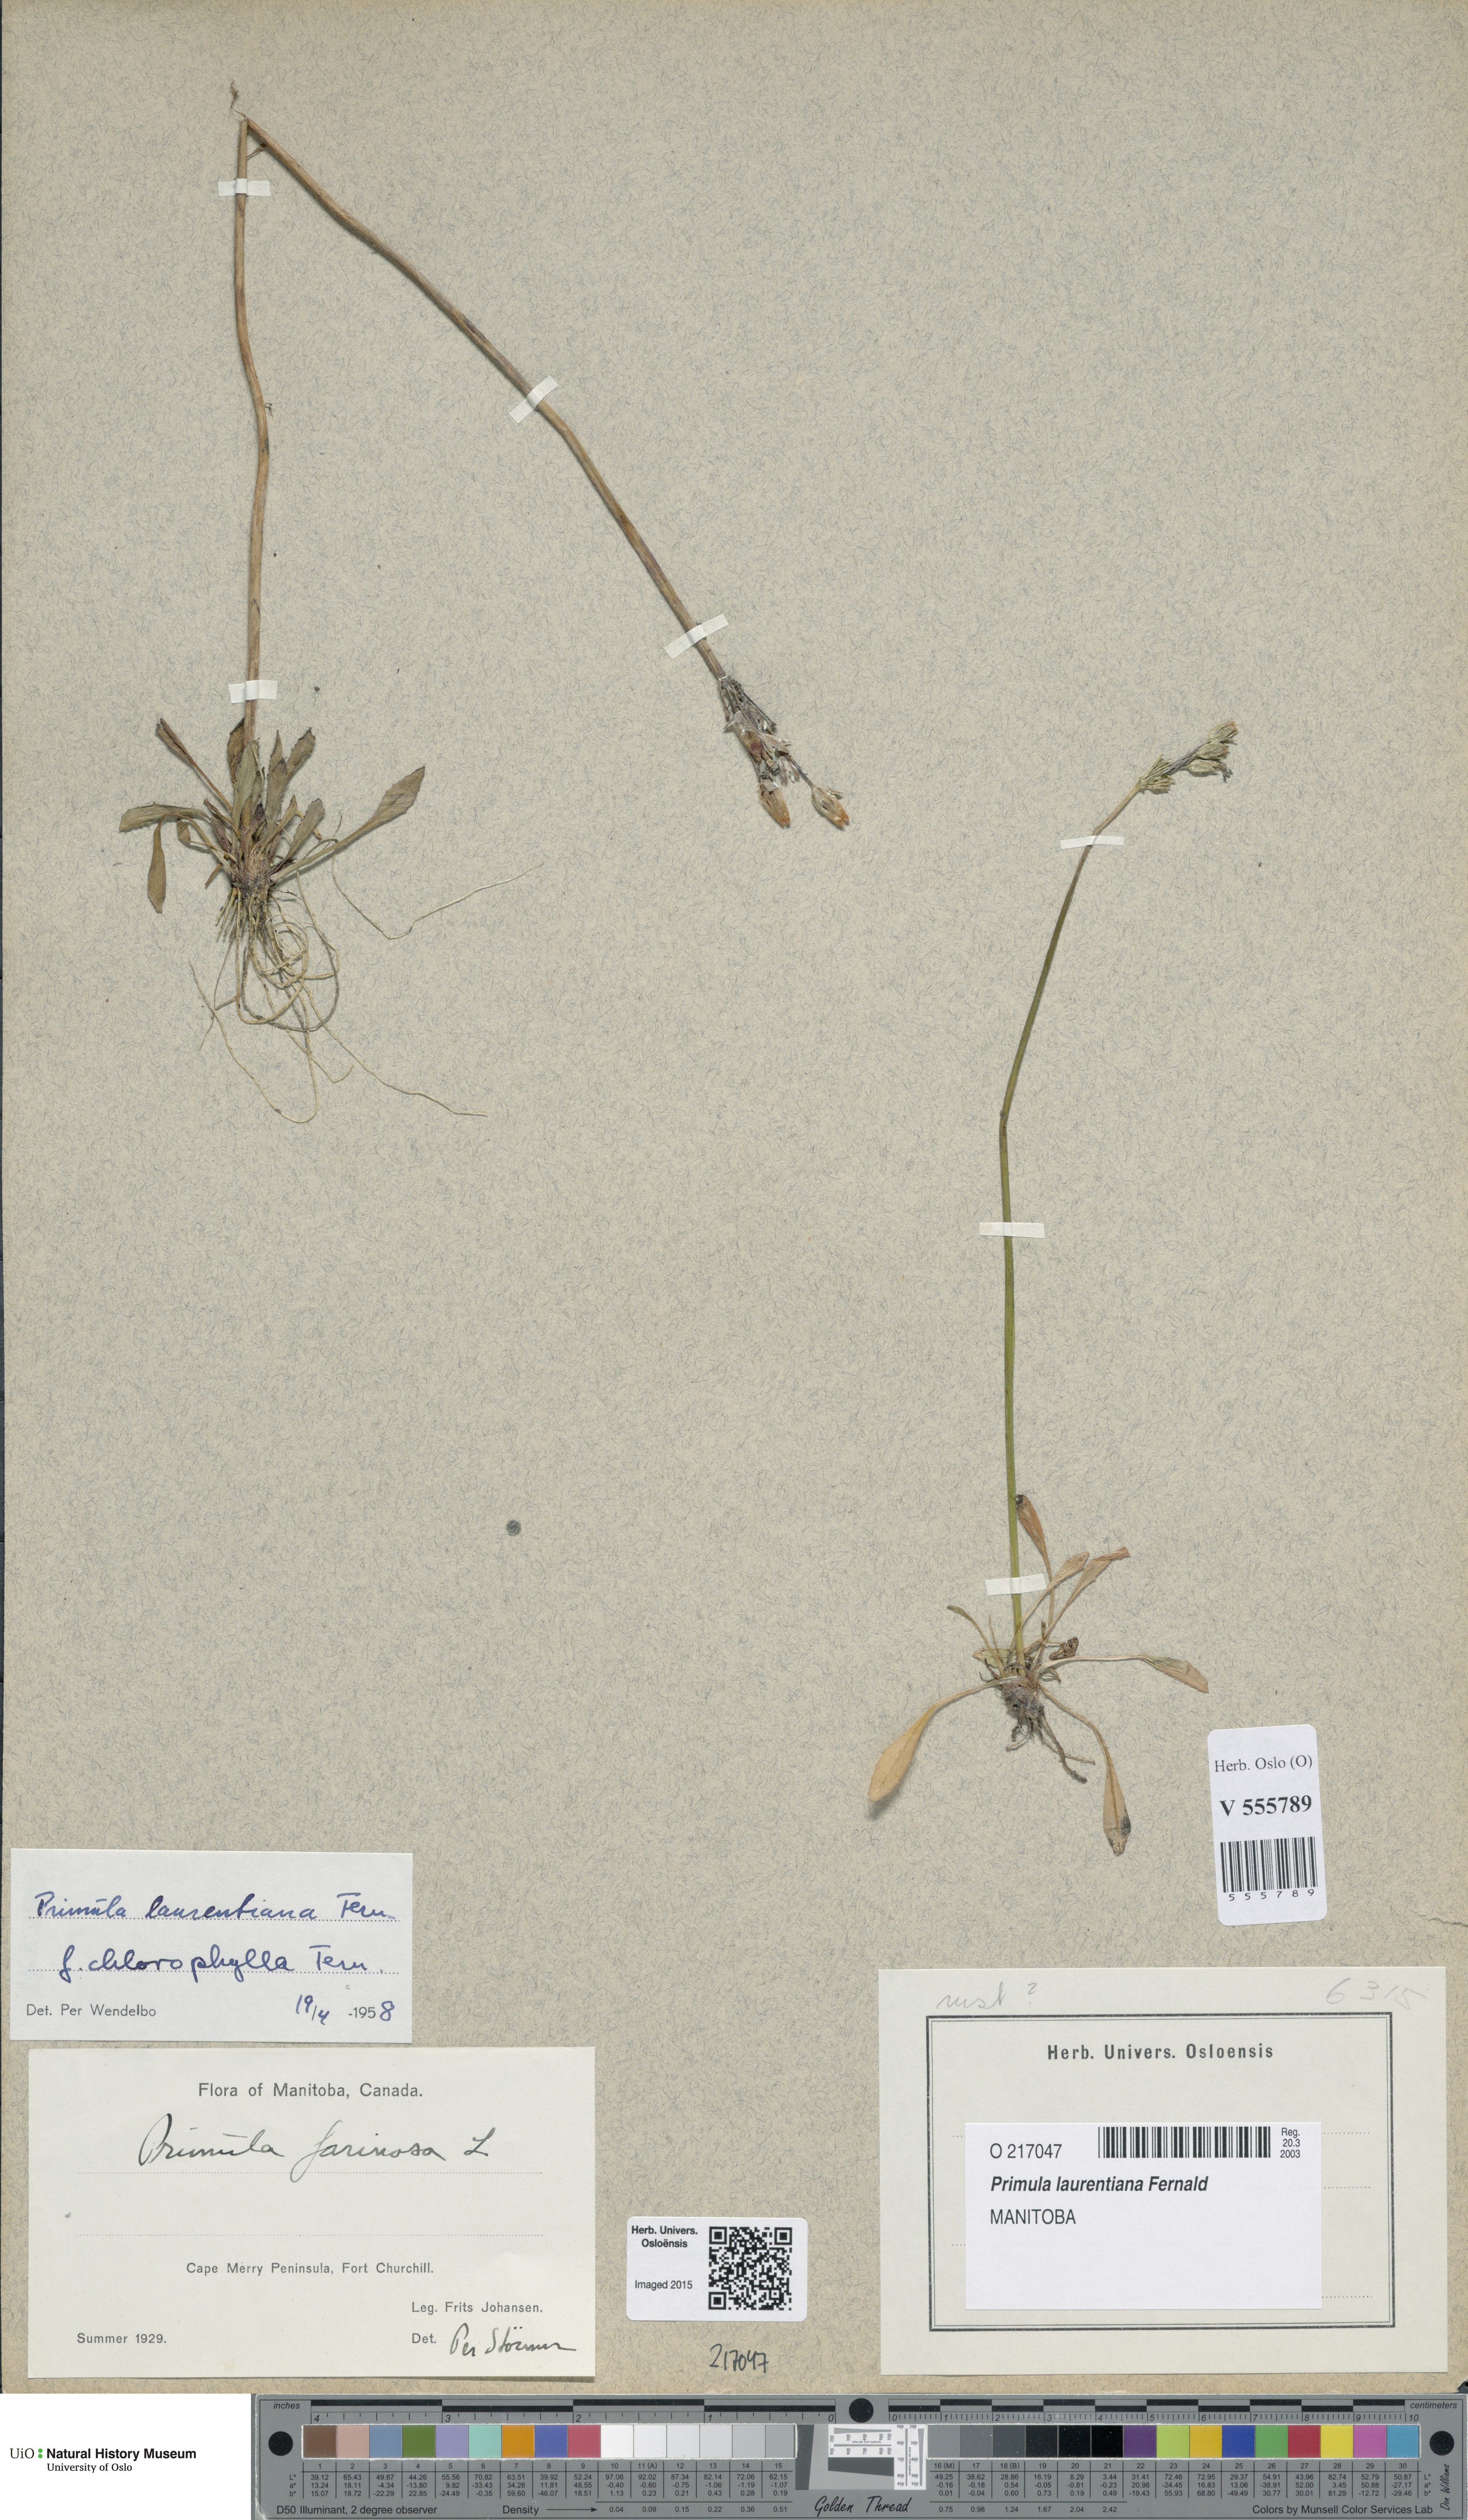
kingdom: Plantae
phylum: Tracheophyta
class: Magnoliopsida
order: Ericales
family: Primulaceae
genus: Primula
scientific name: Primula laurentiana
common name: Bird-eye primrose
